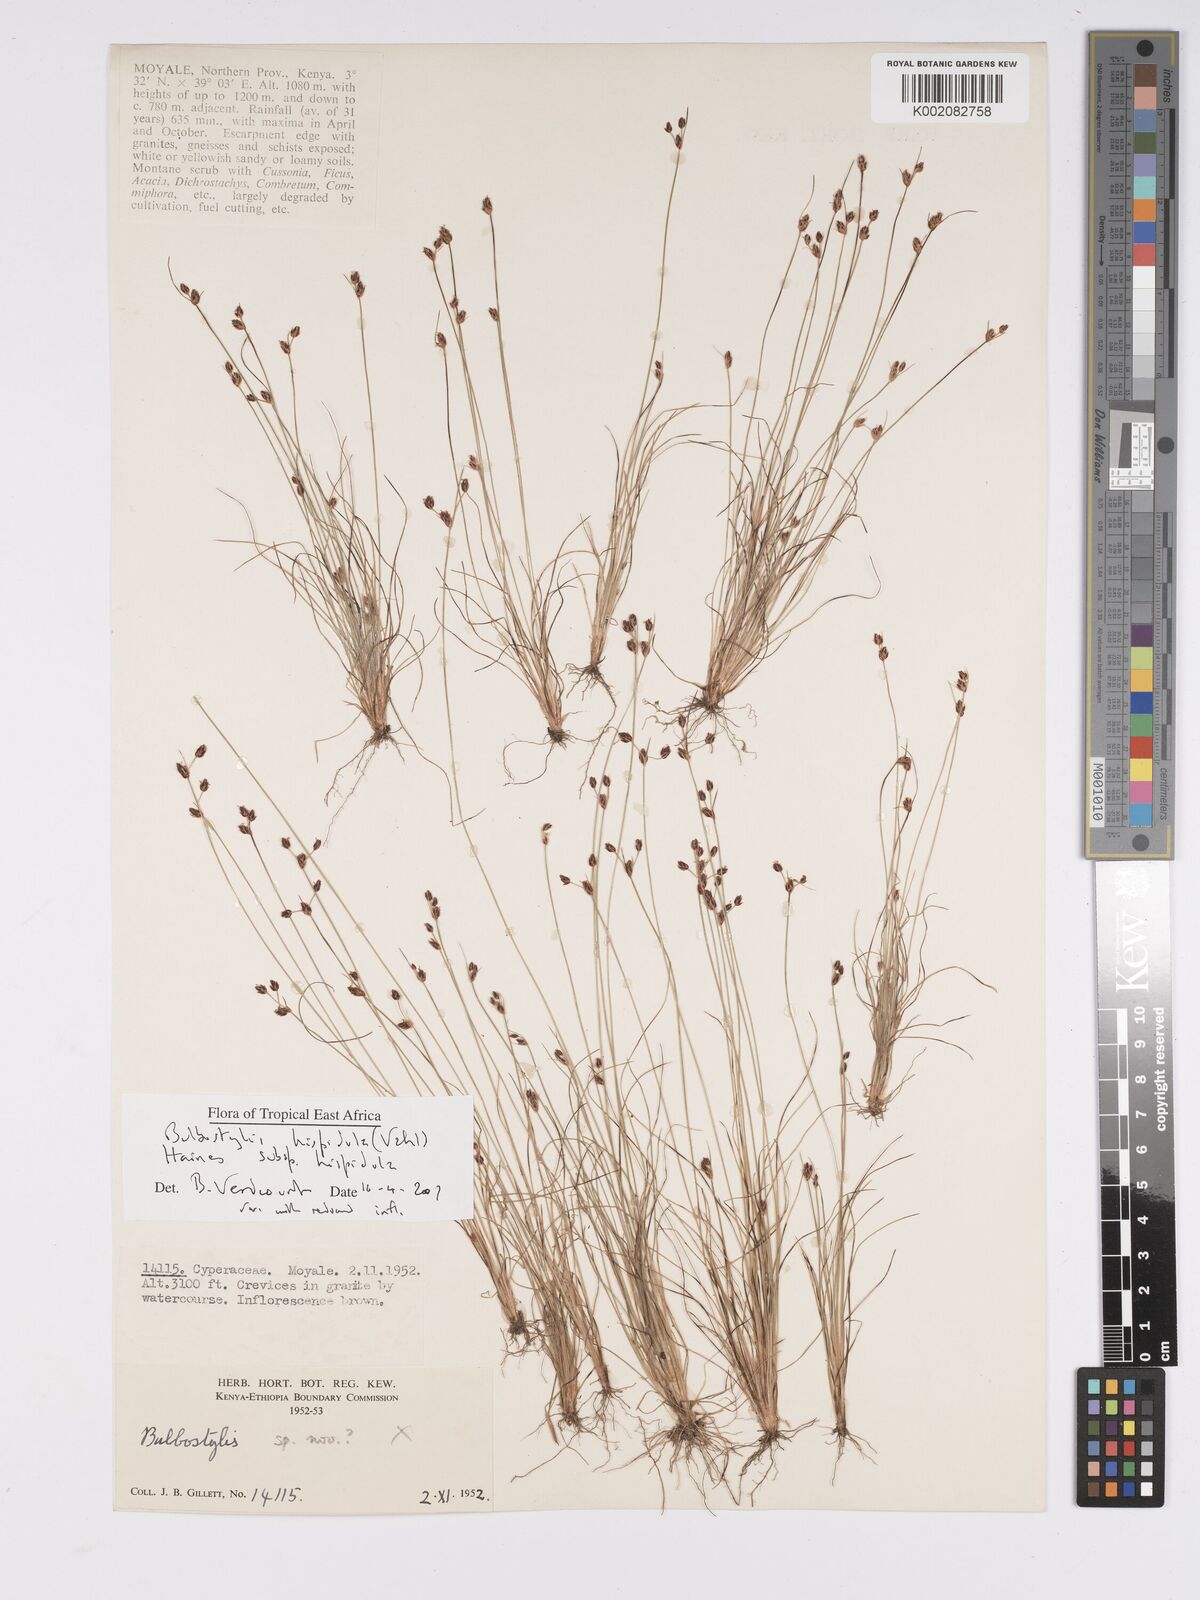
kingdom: Plantae
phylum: Tracheophyta
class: Liliopsida
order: Poales
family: Cyperaceae
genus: Bulbostylis
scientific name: Bulbostylis hispidula
